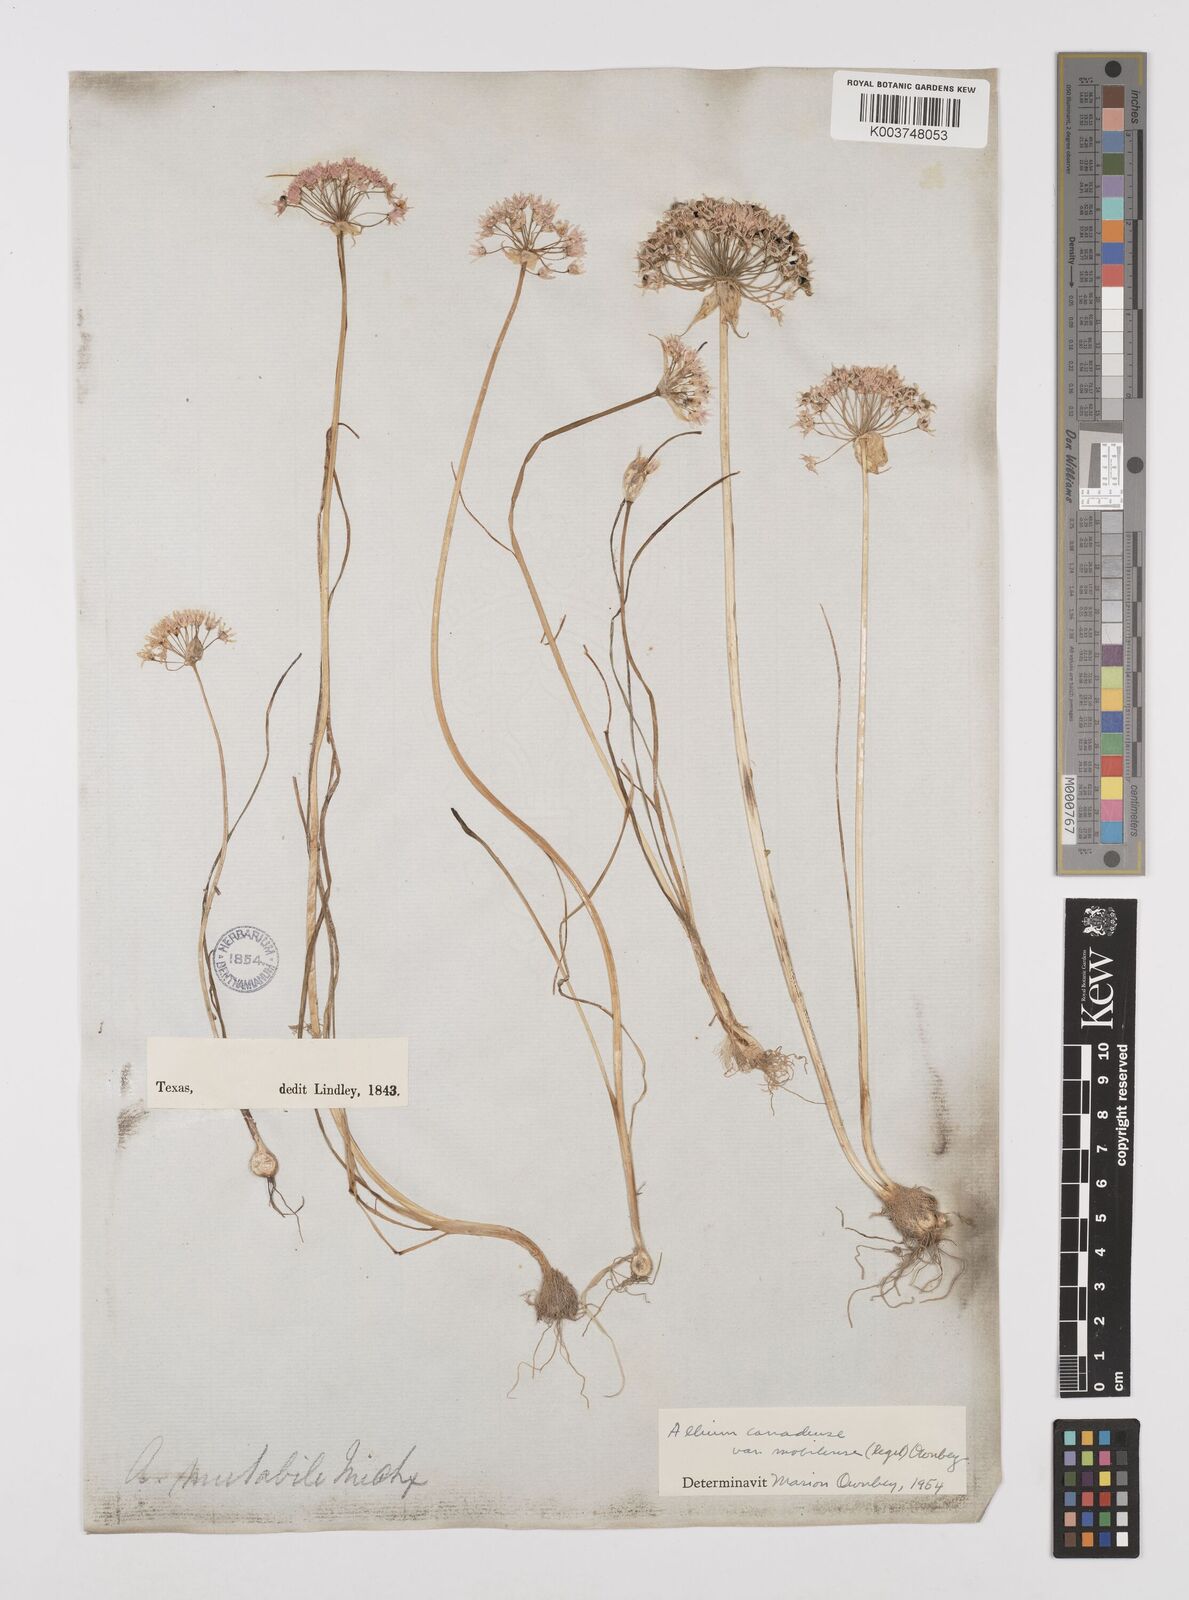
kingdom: Plantae
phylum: Tracheophyta
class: Liliopsida
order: Asparagales
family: Amaryllidaceae
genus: Allium
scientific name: Allium canadense
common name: Meadow garlic
